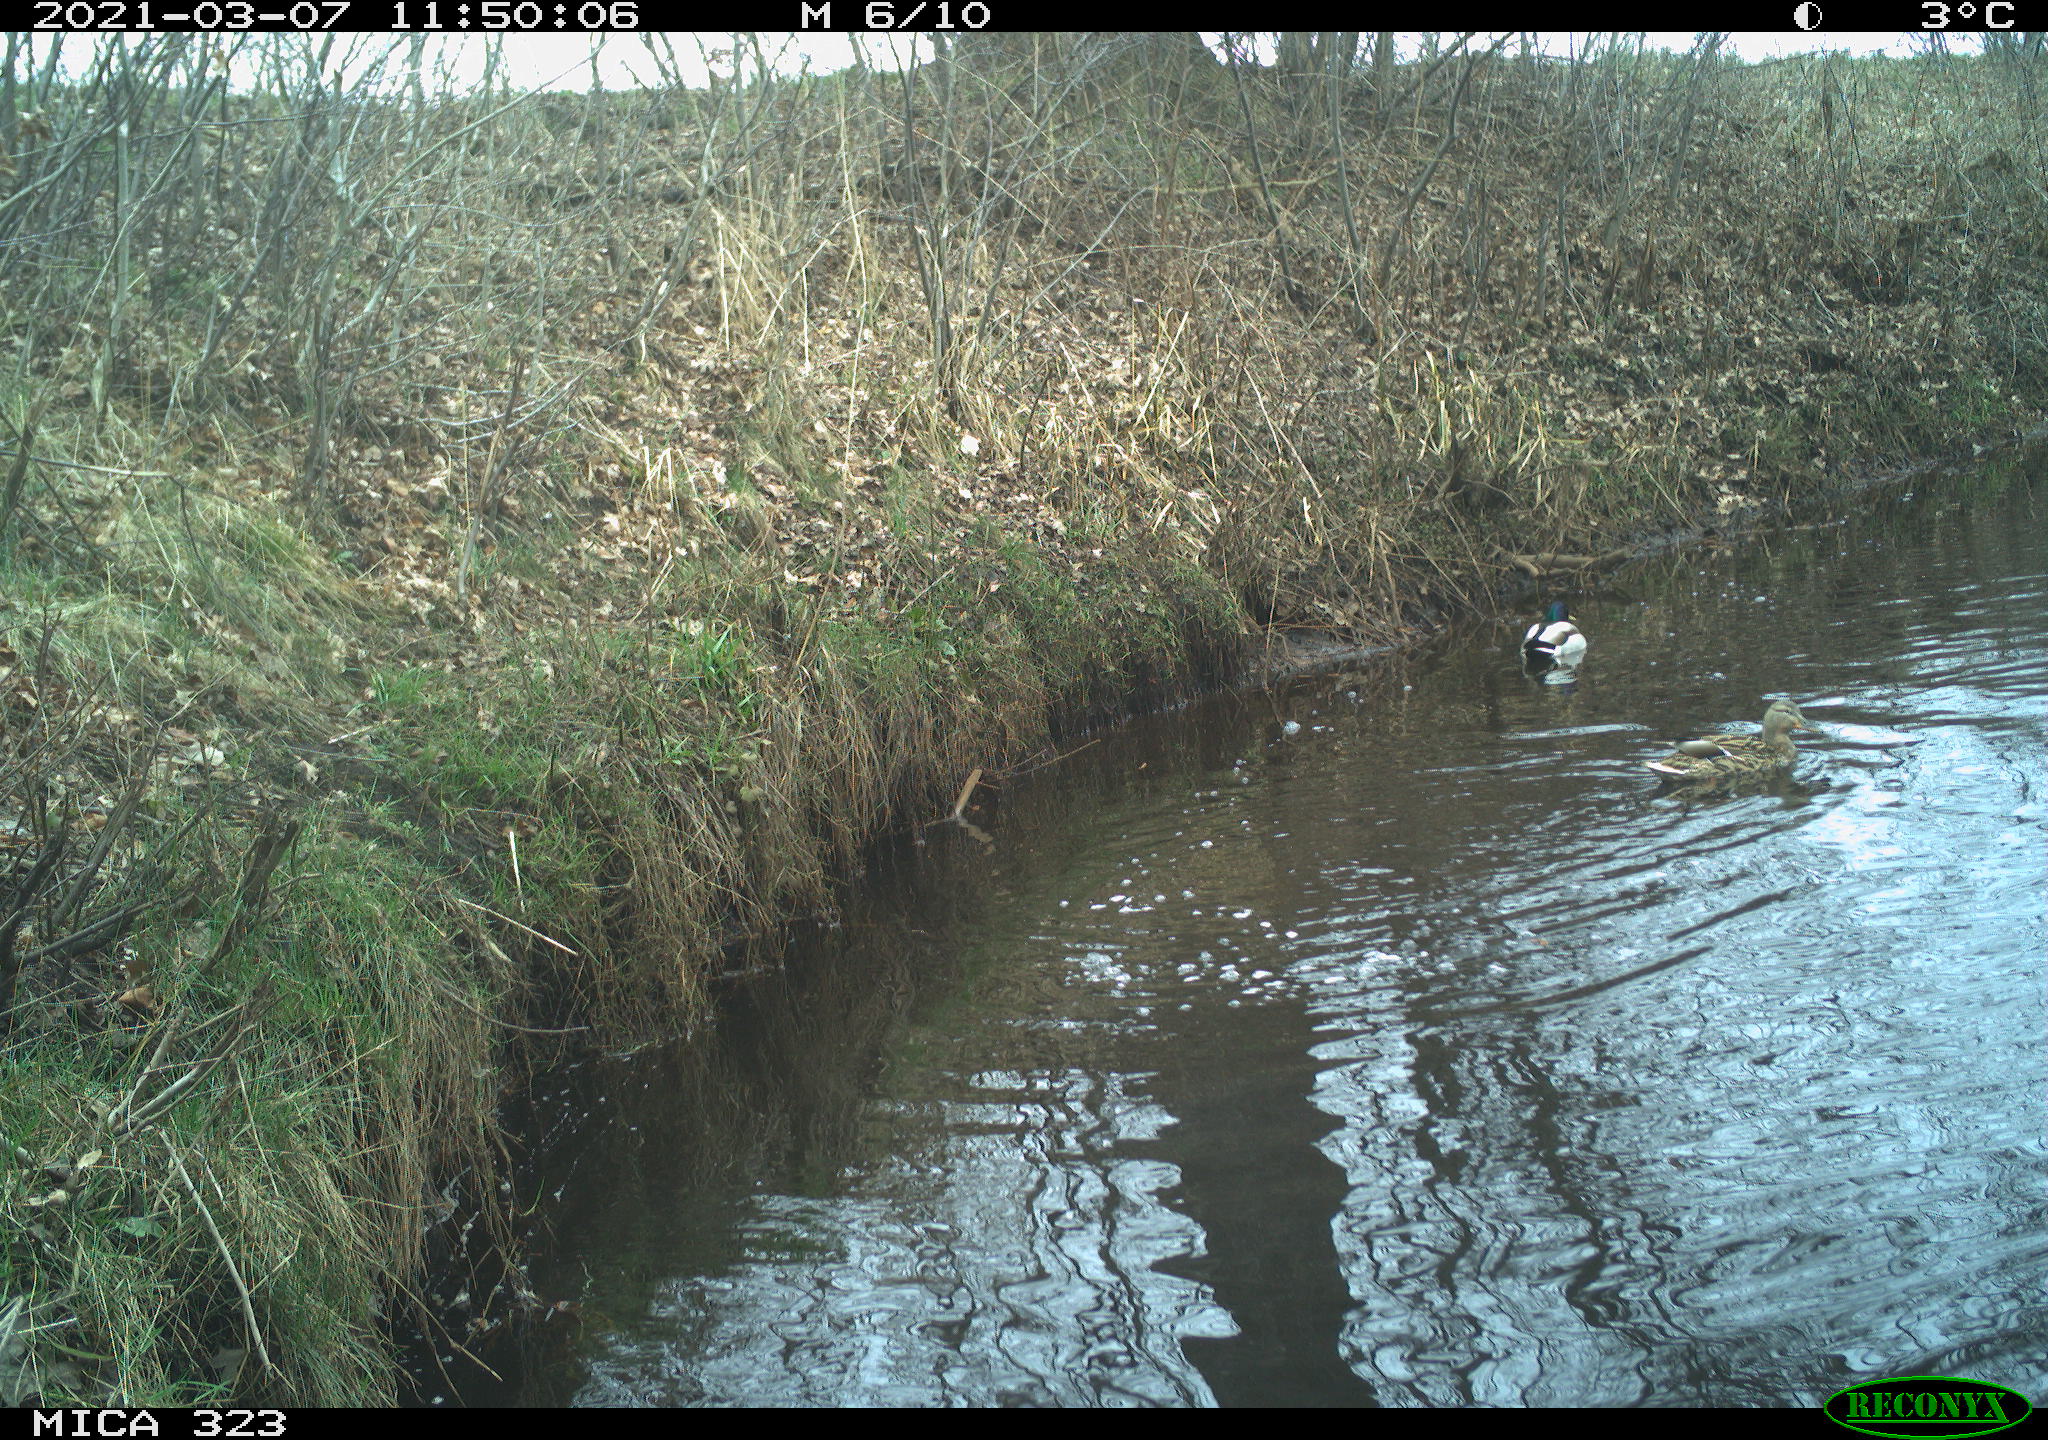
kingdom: Animalia
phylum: Chordata
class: Aves
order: Anseriformes
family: Anatidae
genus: Anas
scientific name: Anas platyrhynchos
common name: Mallard
